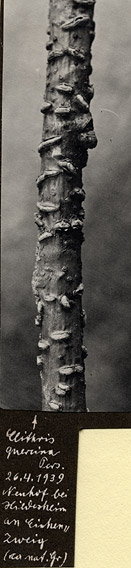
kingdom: Fungi
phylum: Ascomycota
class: Leotiomycetes
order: Rhytismatales
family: Rhytismataceae
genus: Colpoma
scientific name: Colpoma quercinum
